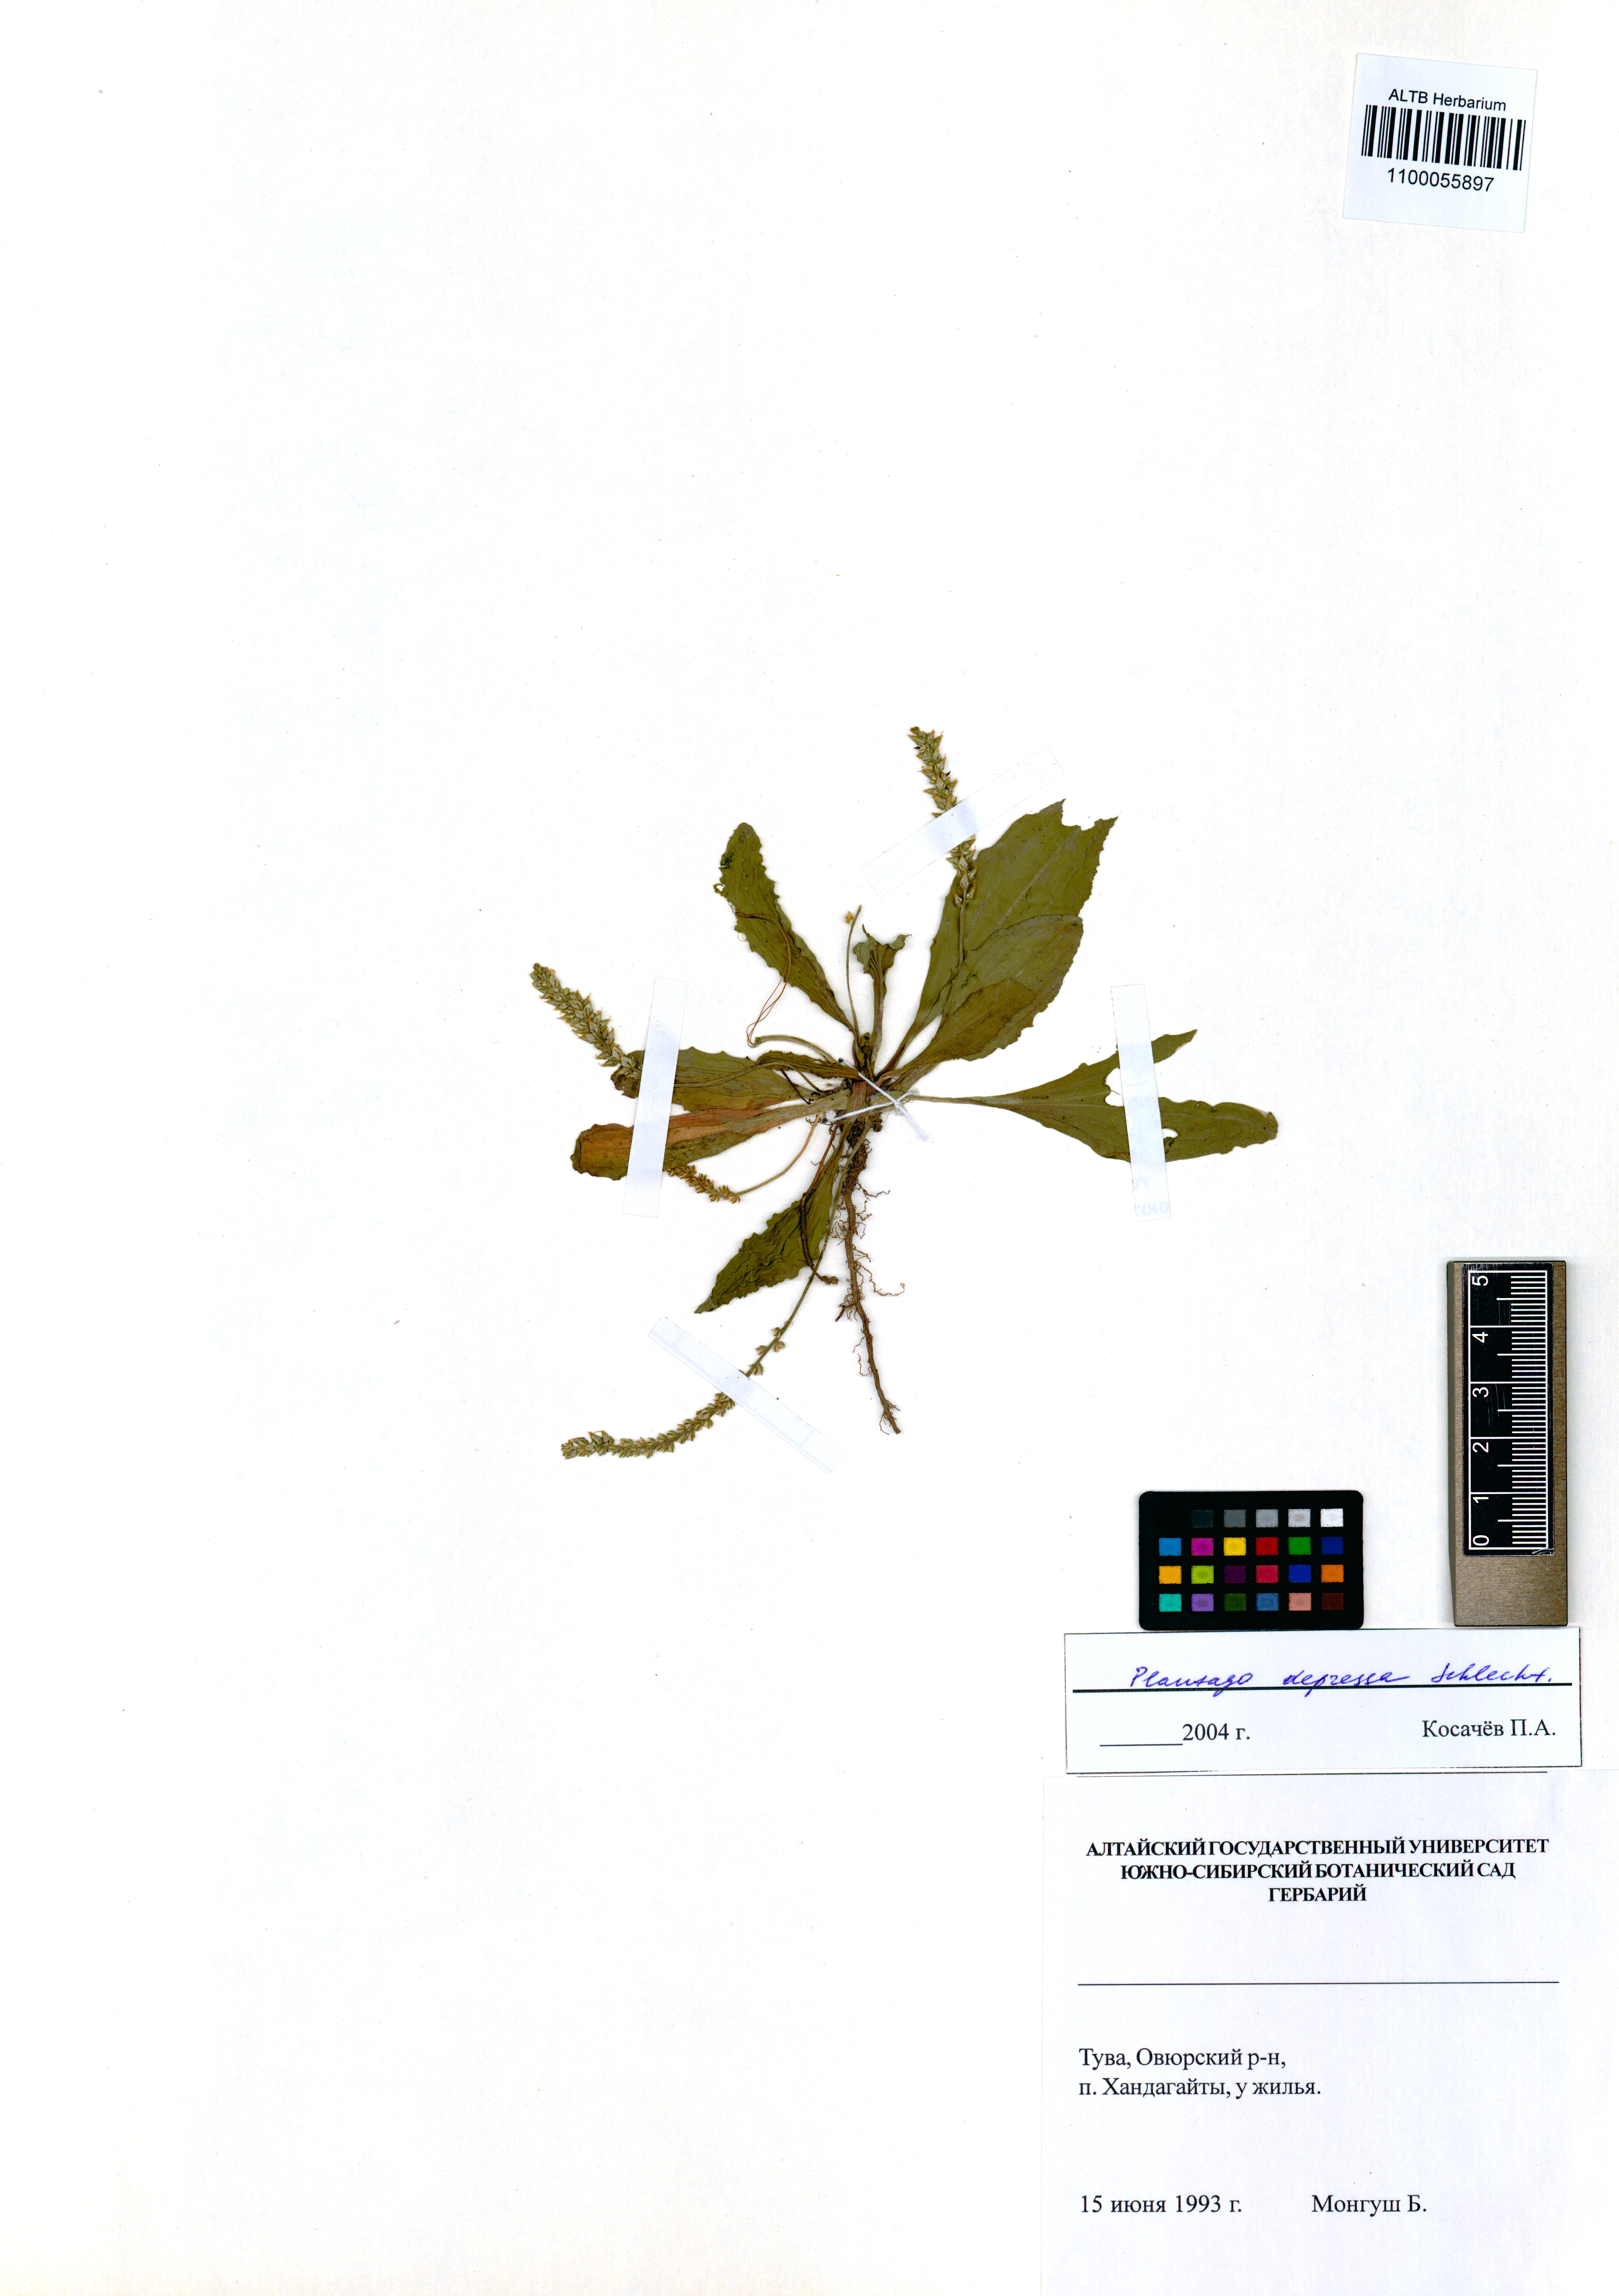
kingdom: Plantae
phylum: Tracheophyta
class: Magnoliopsida
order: Lamiales
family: Plantaginaceae
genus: Plantago
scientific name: Plantago depressa
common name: Depressed plantain
